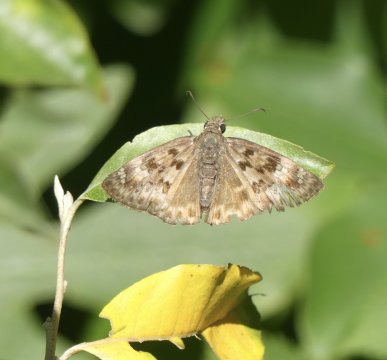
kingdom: Animalia
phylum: Arthropoda
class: Insecta
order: Lepidoptera
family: Hesperiidae
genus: Gesta
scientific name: Gesta
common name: Horace's Duskywing
